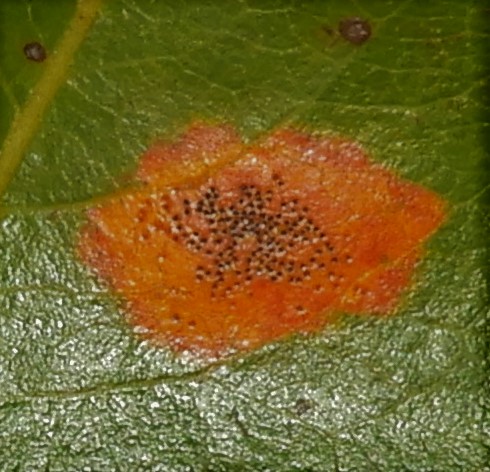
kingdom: Fungi
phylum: Basidiomycota
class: Pucciniomycetes
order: Pucciniales
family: Gymnosporangiaceae
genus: Gymnosporangium
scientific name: Gymnosporangium sabinae
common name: pæregitter-bævrerust
